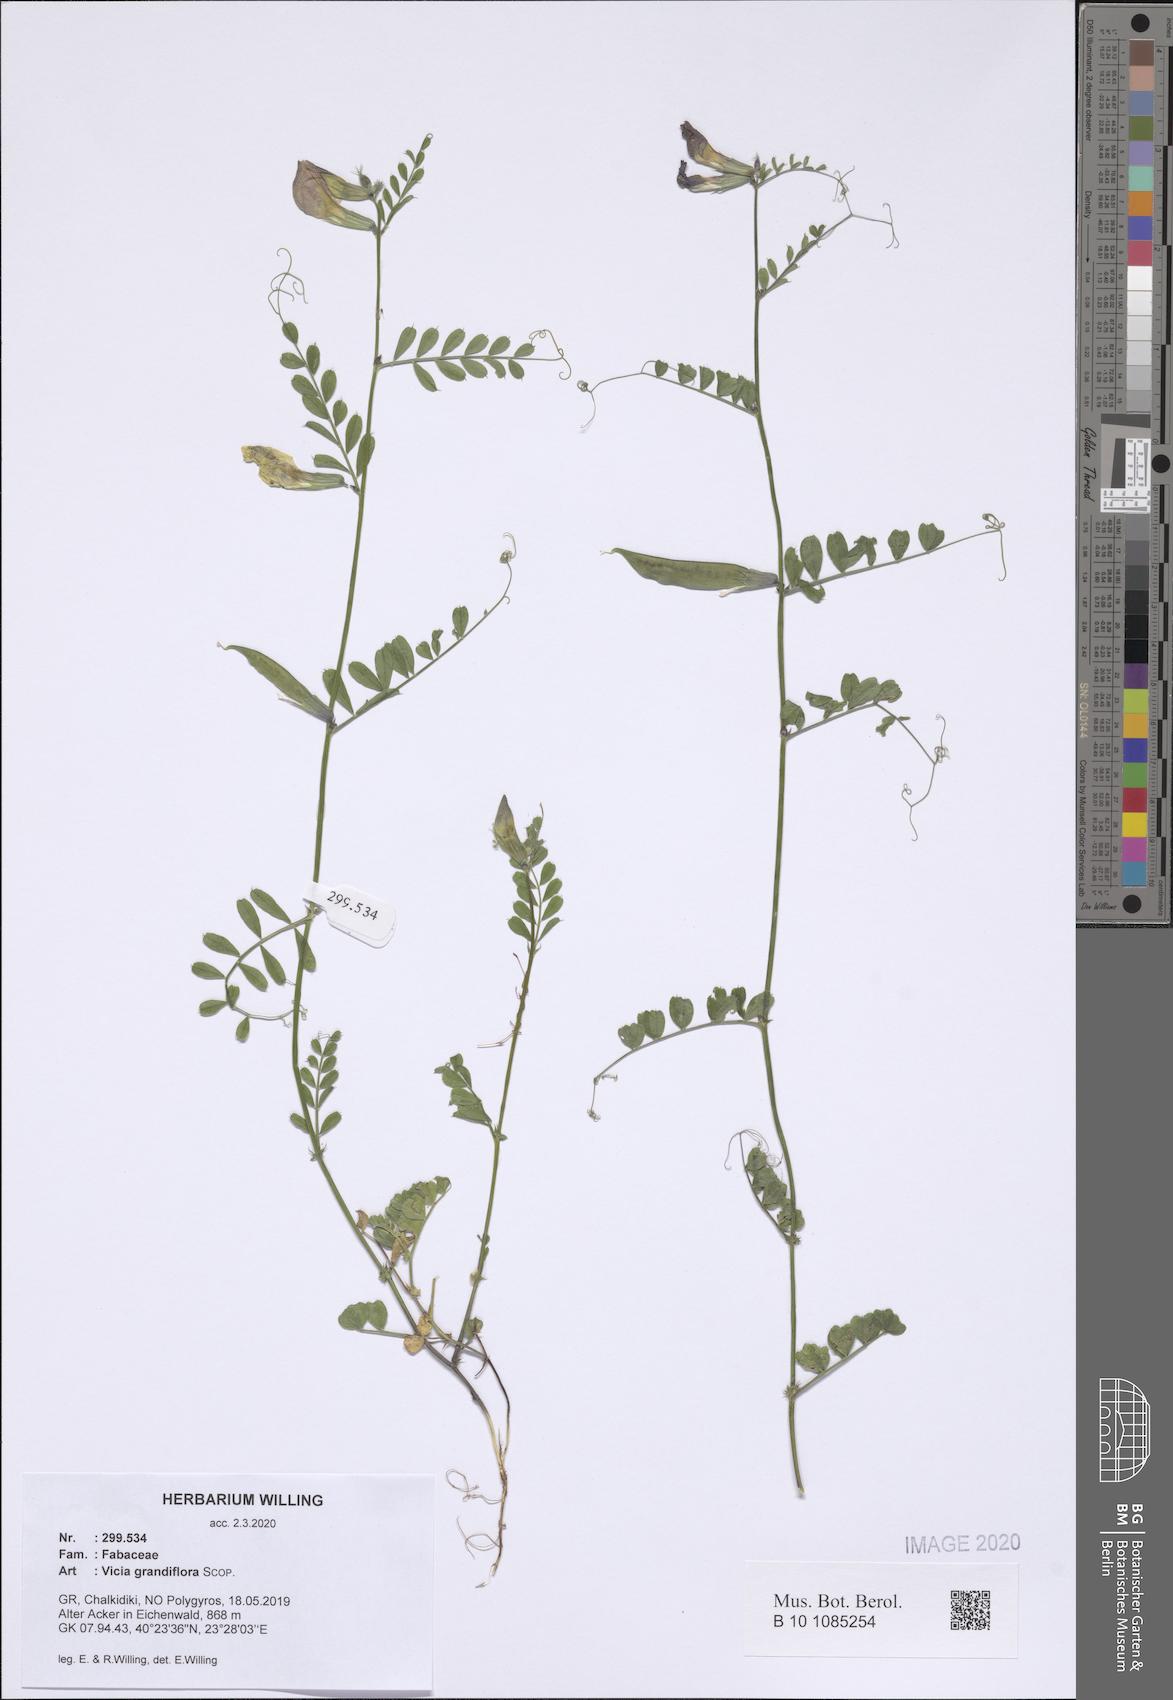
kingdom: Plantae
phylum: Tracheophyta
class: Magnoliopsida
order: Fabales
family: Fabaceae
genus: Vicia
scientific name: Vicia grandiflora
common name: Large yellow vetch
